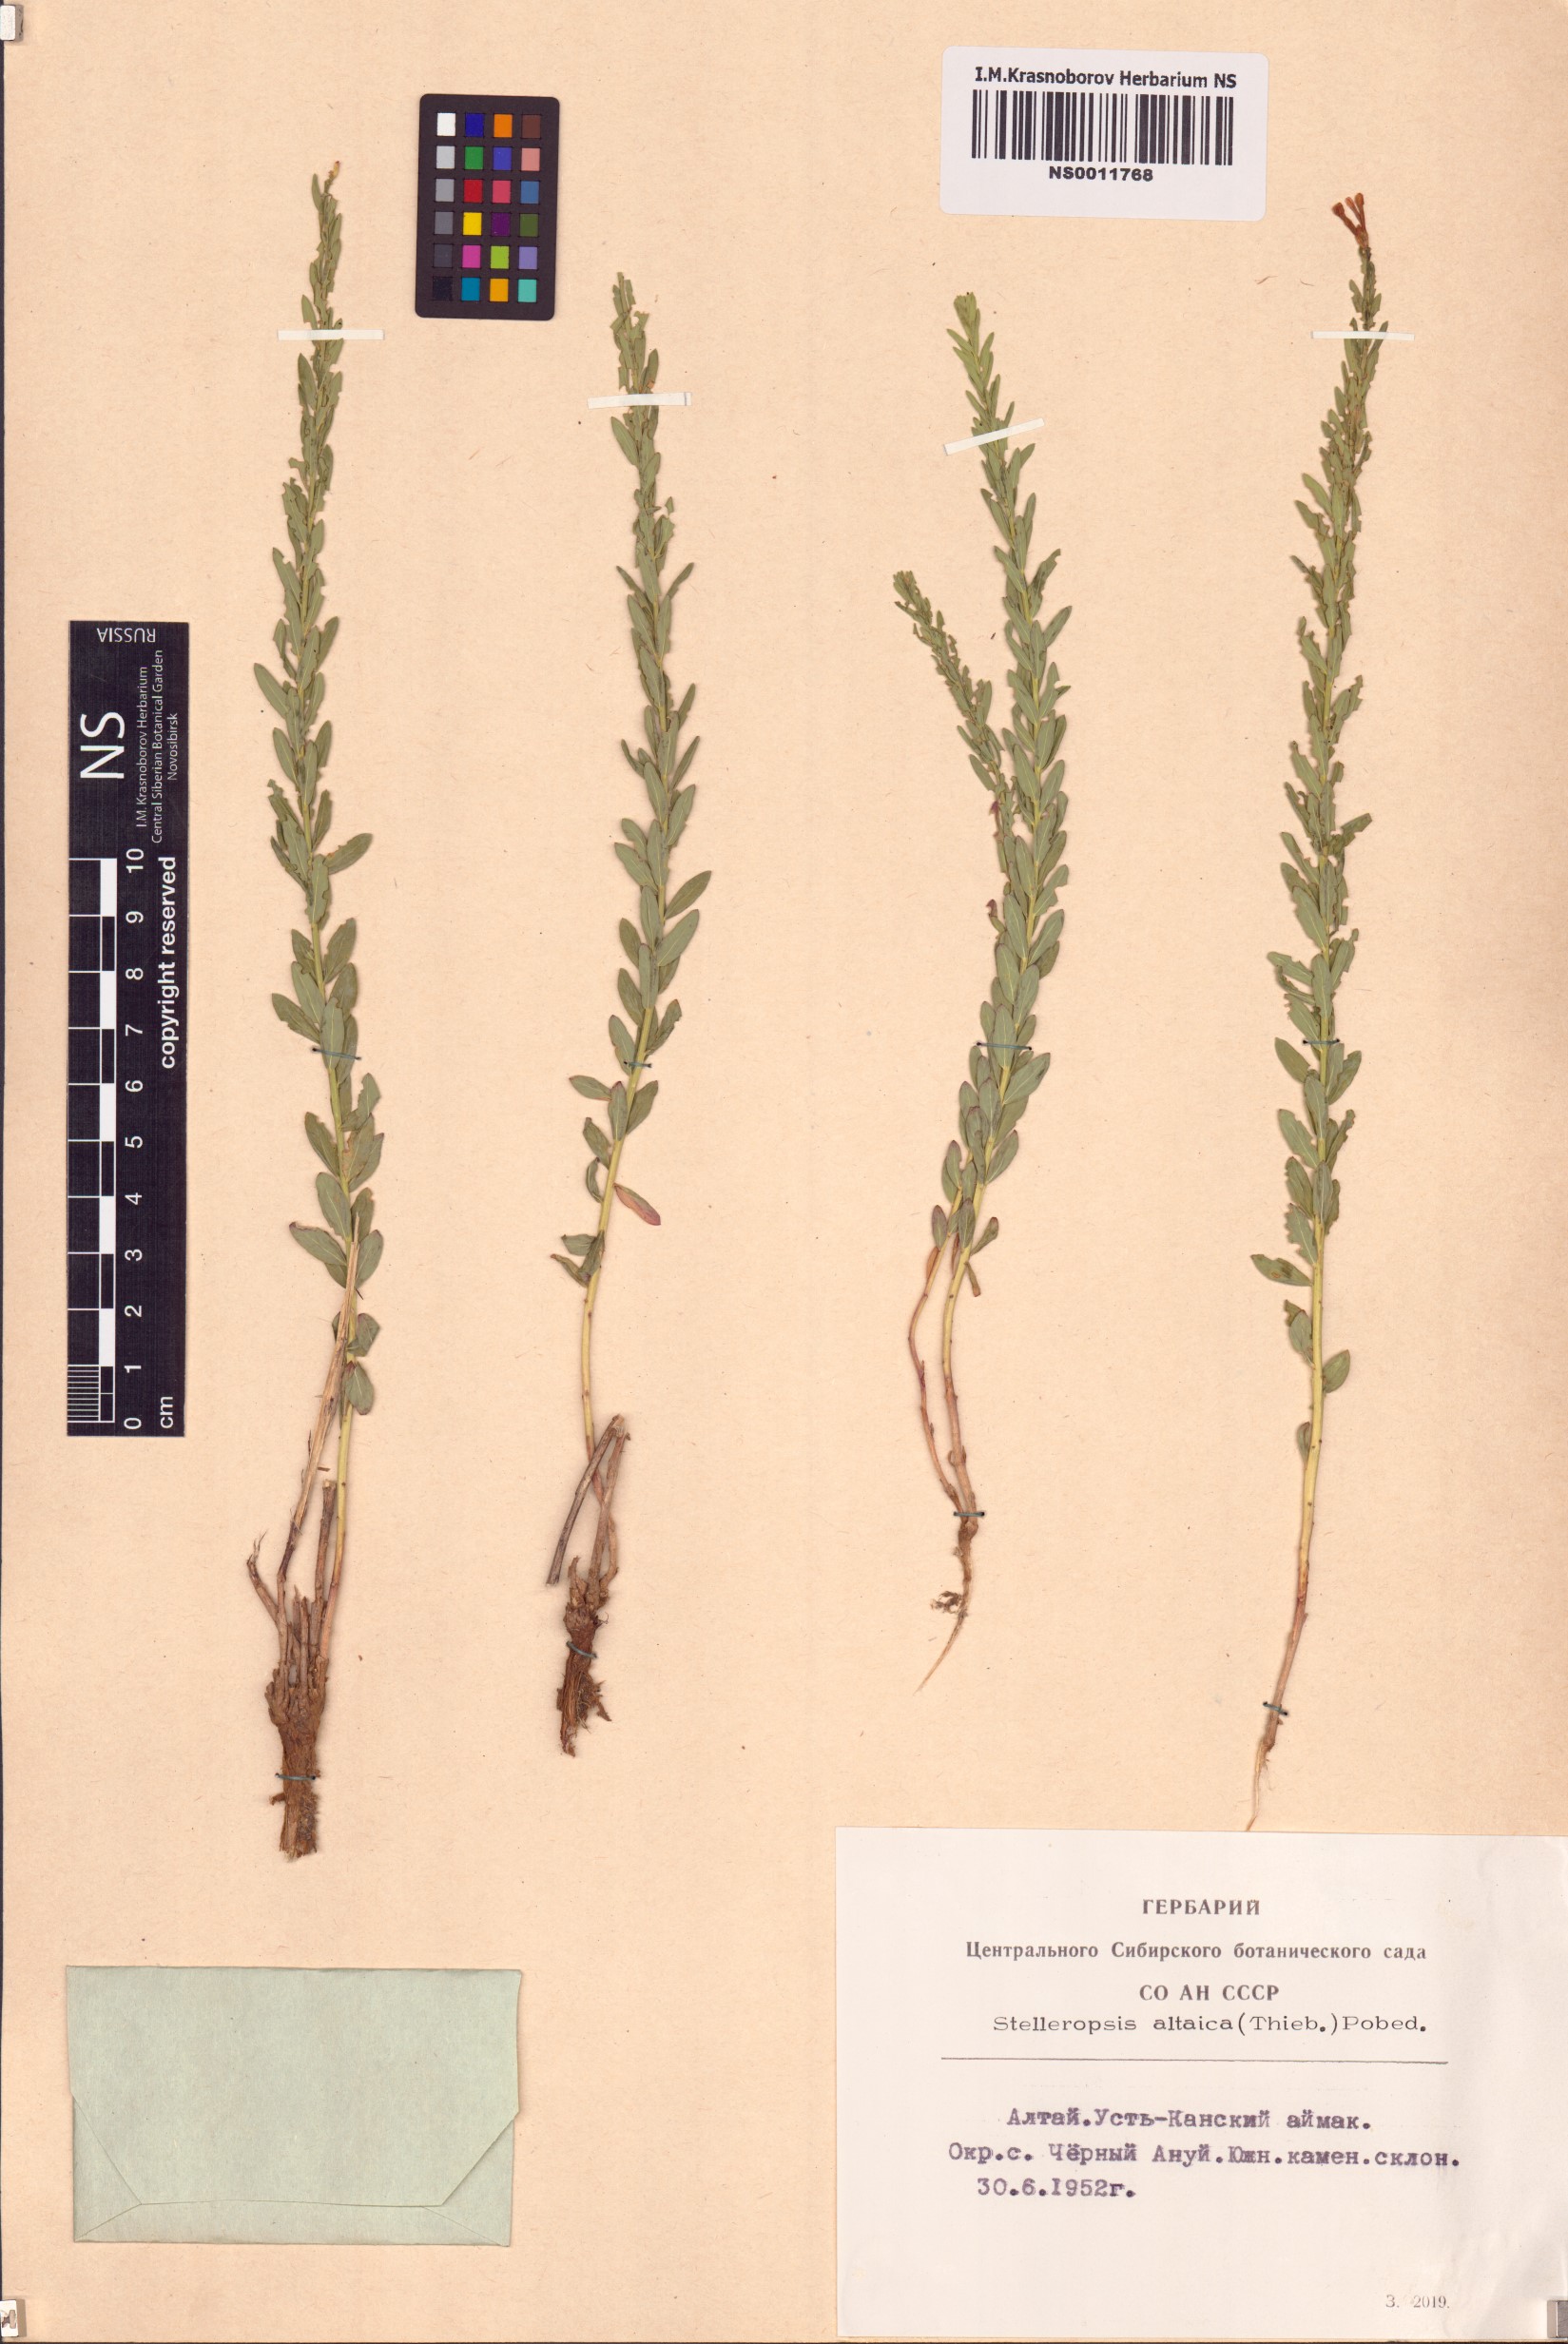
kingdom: Plantae
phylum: Tracheophyta
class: Magnoliopsida
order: Malvales
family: Thymelaeaceae
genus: Diarthron
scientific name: Diarthron altaicum
